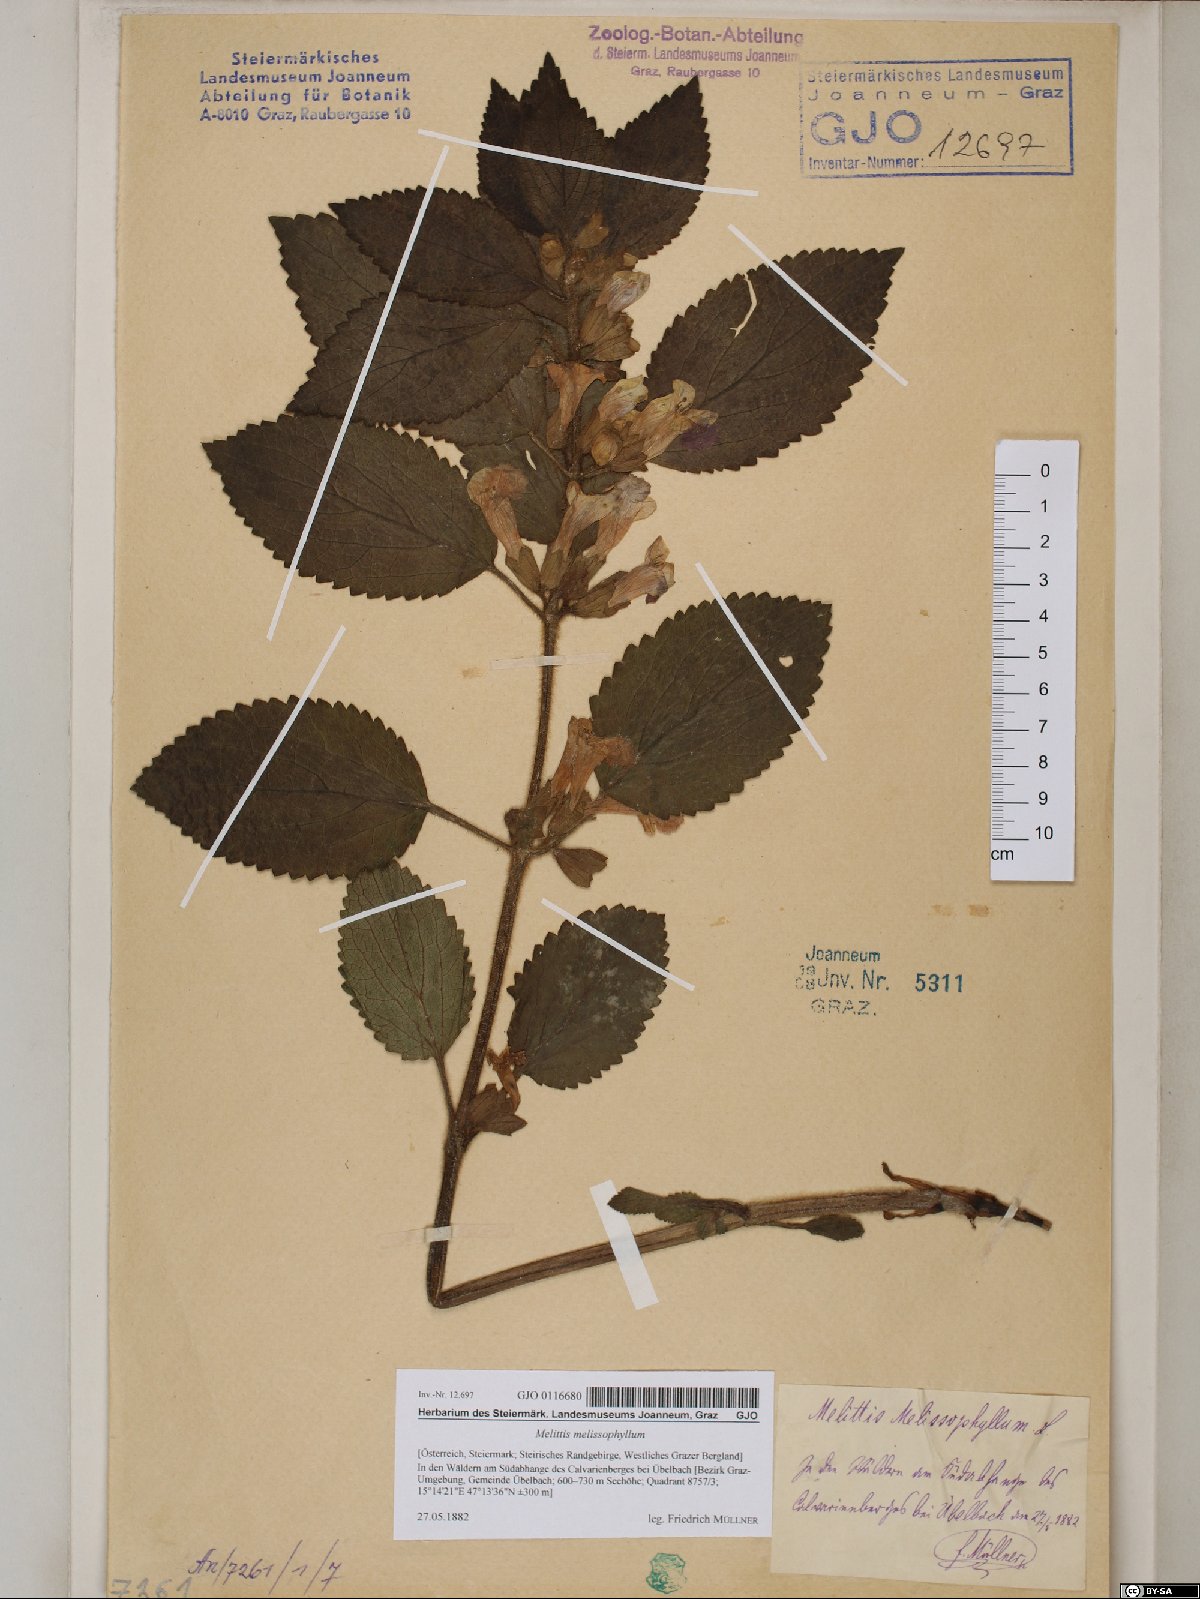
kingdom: Plantae
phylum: Tracheophyta
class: Magnoliopsida
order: Lamiales
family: Lamiaceae
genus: Melittis
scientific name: Melittis melissophyllum
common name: Bastard balm
